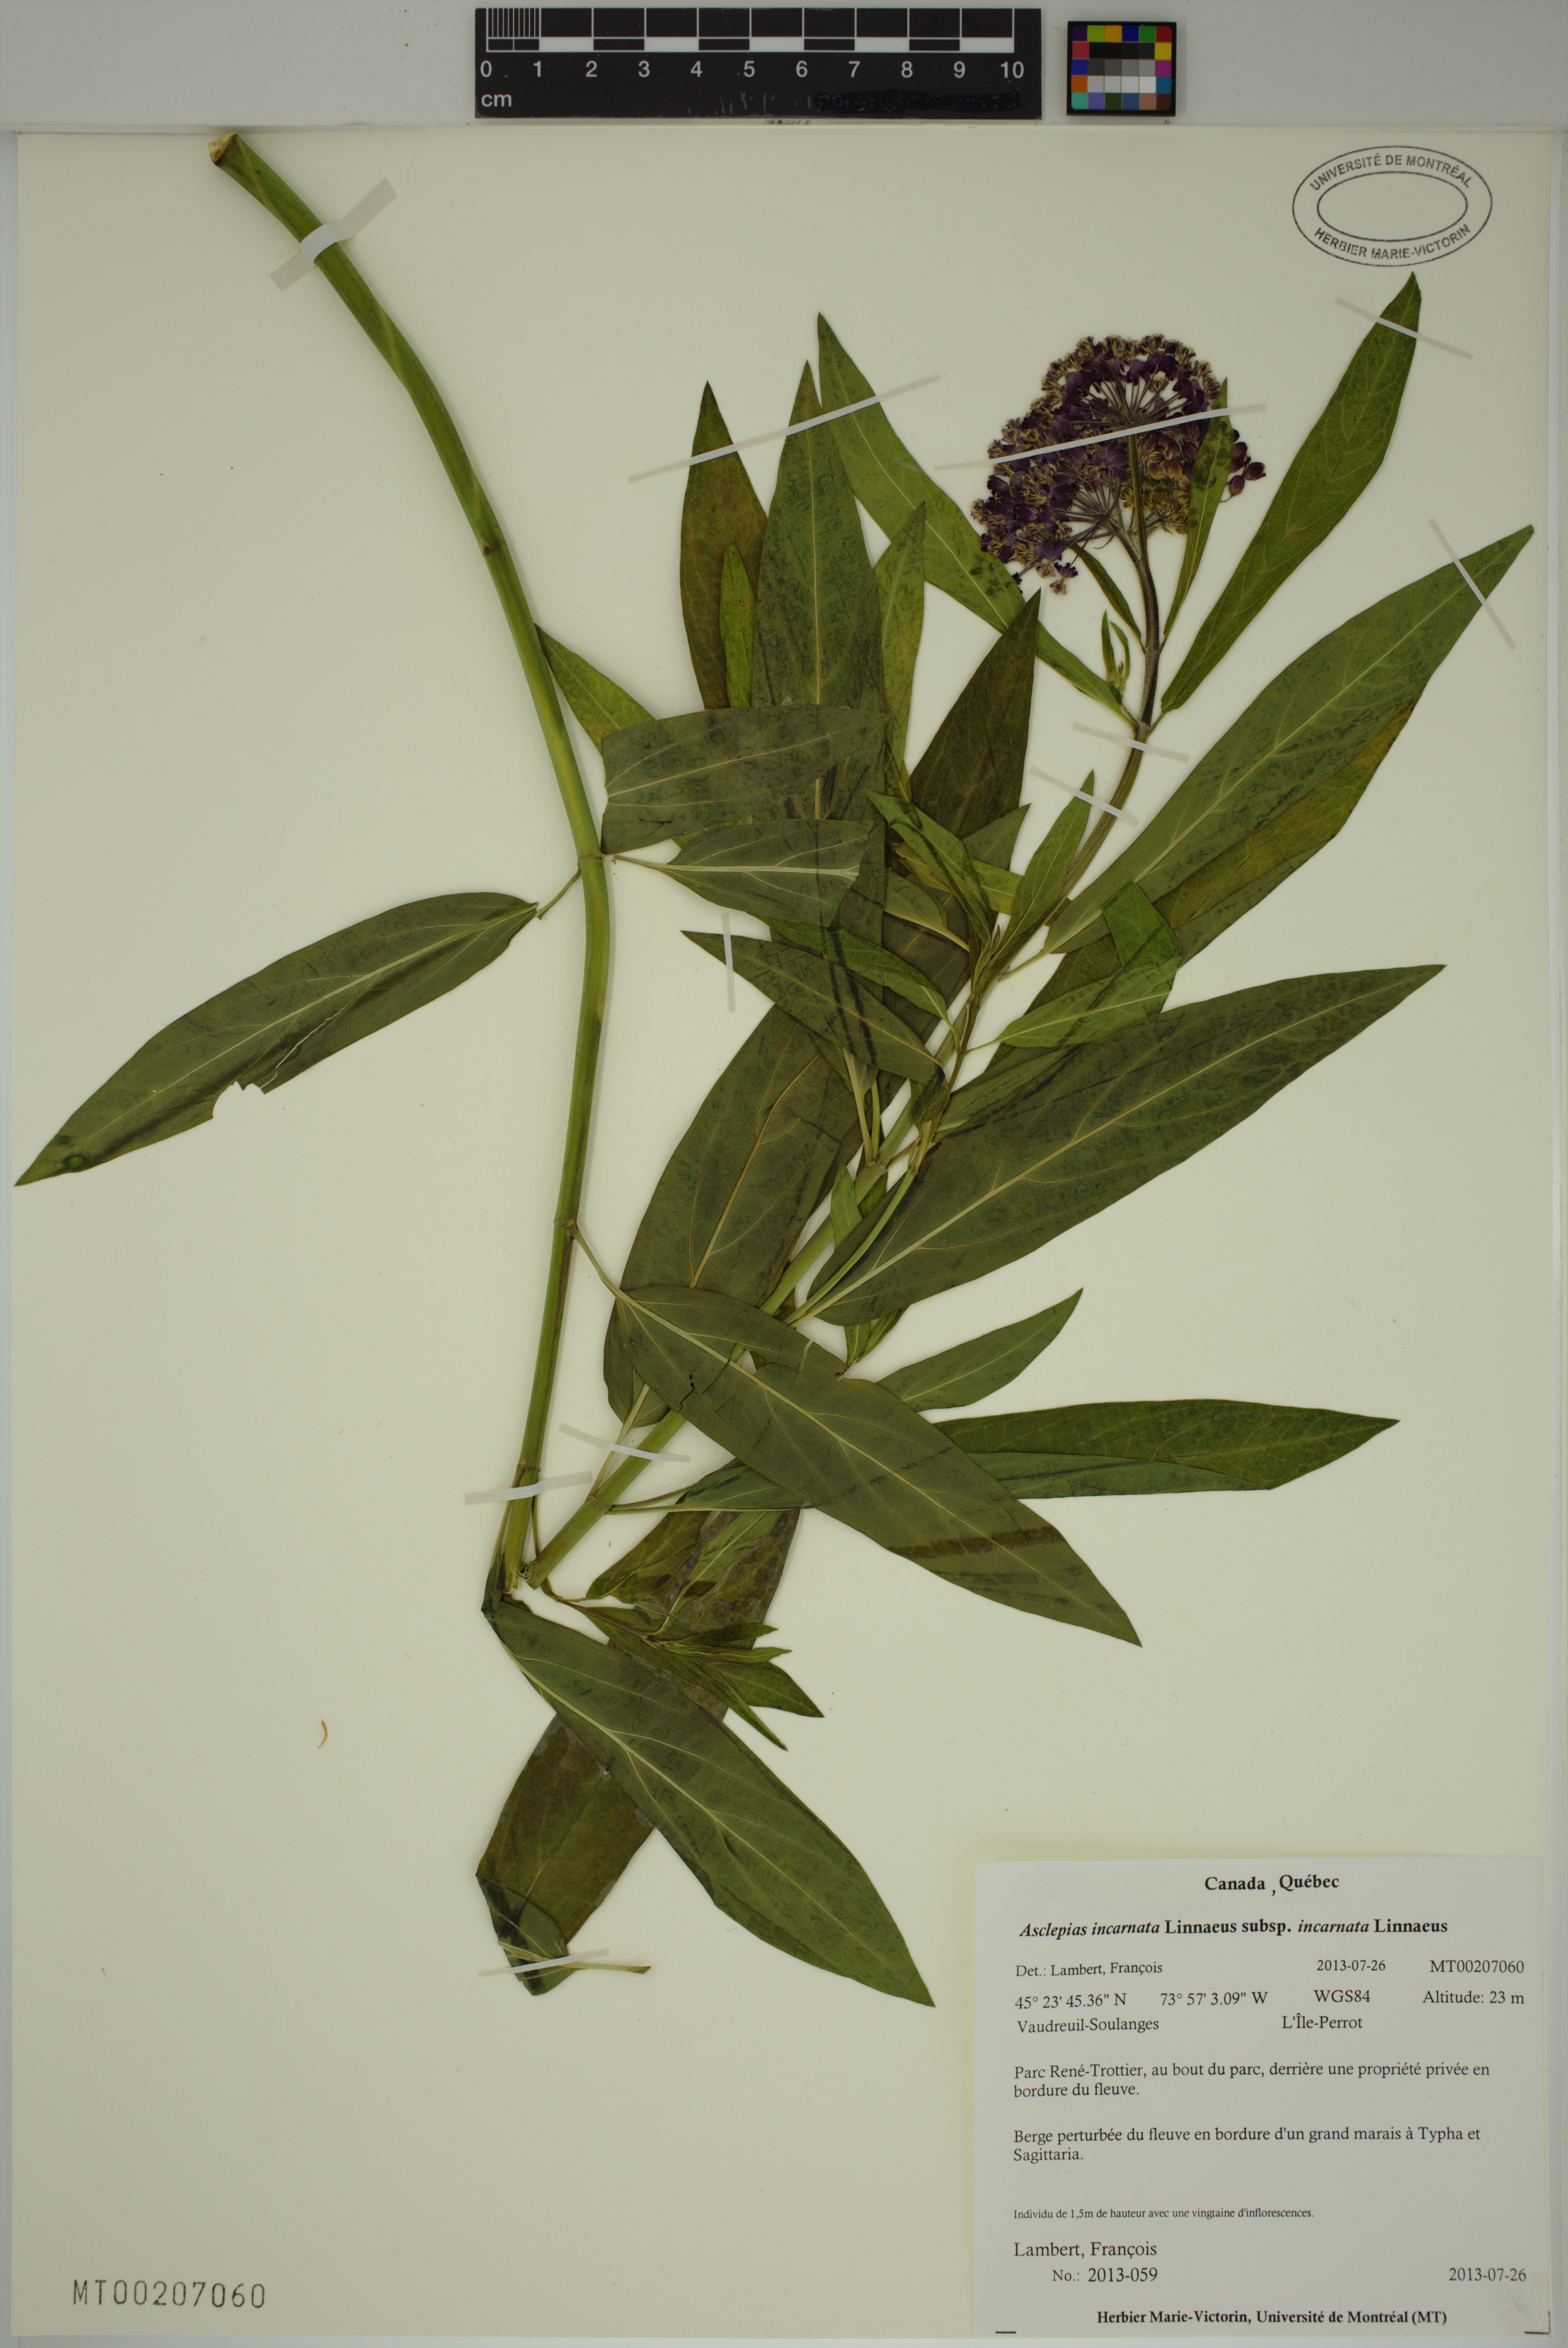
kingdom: Plantae
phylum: Tracheophyta
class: Magnoliopsida
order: Gentianales
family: Apocynaceae
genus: Asclepias
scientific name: Asclepias incarnata
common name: Swamp milkweed
